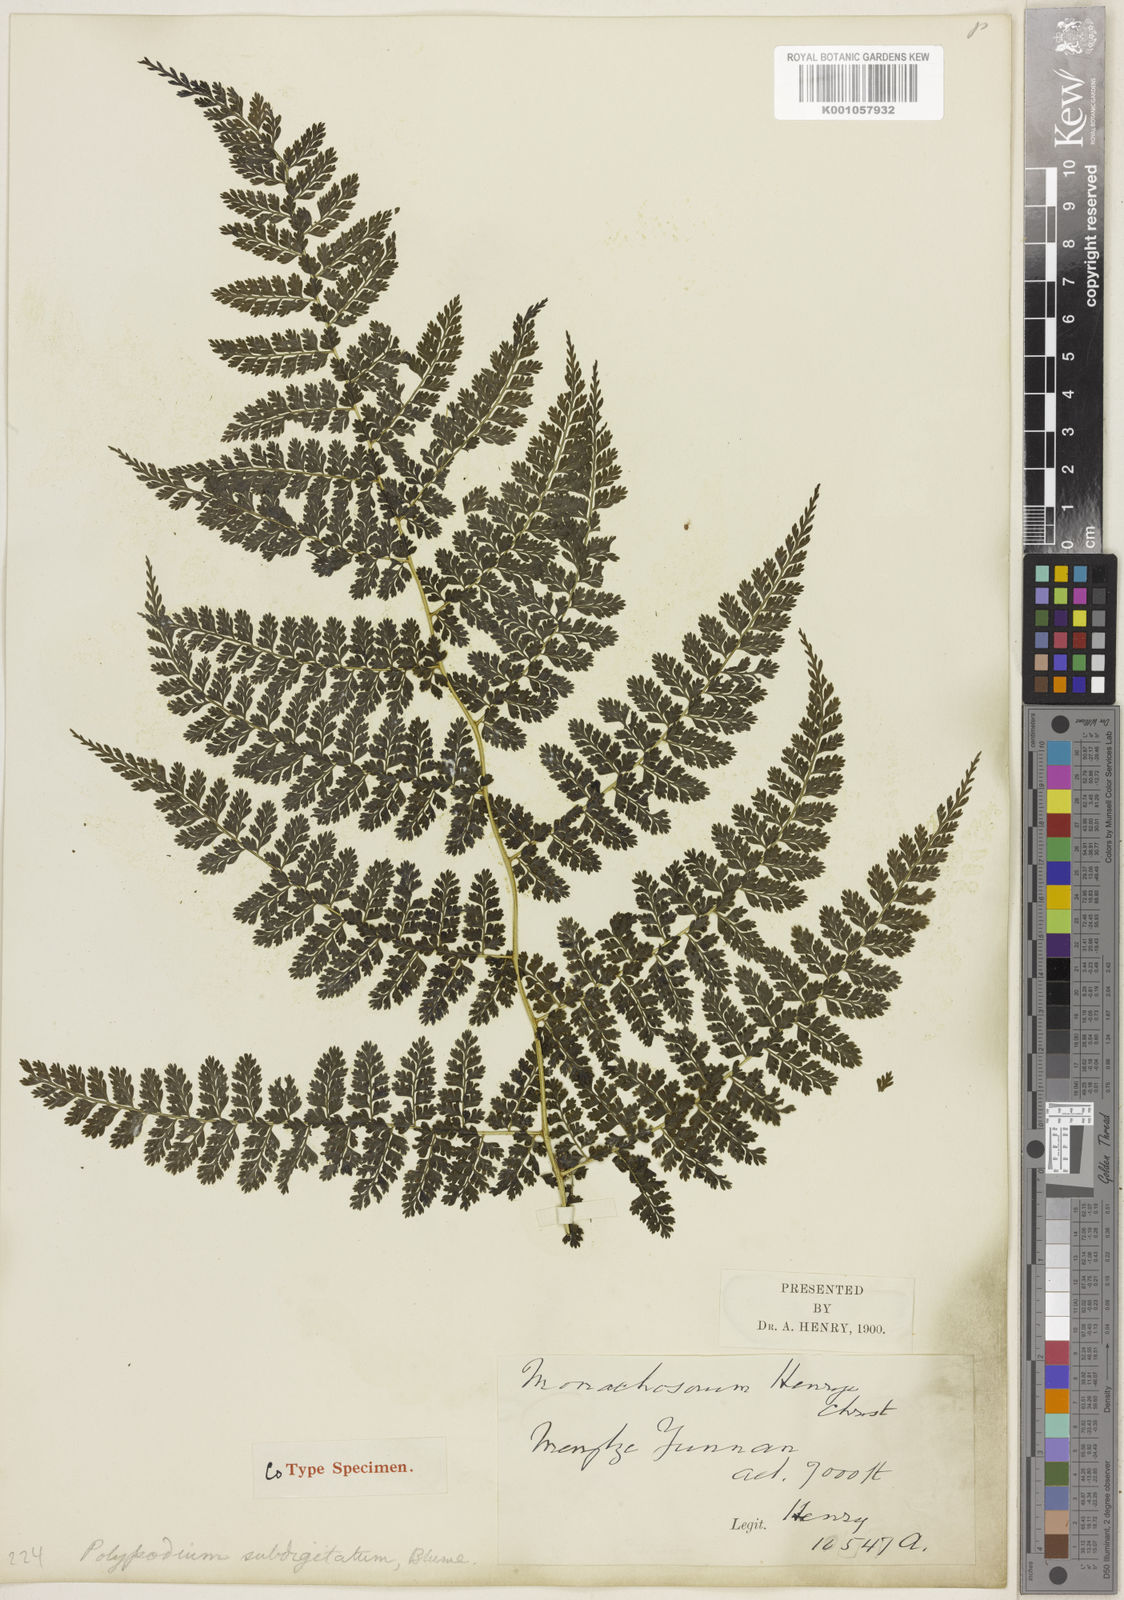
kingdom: Plantae
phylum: Tracheophyta
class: Polypodiopsida
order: Polypodiales
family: Dennstaedtiaceae
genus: Monachosorum
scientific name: Monachosorum subdigitatum
